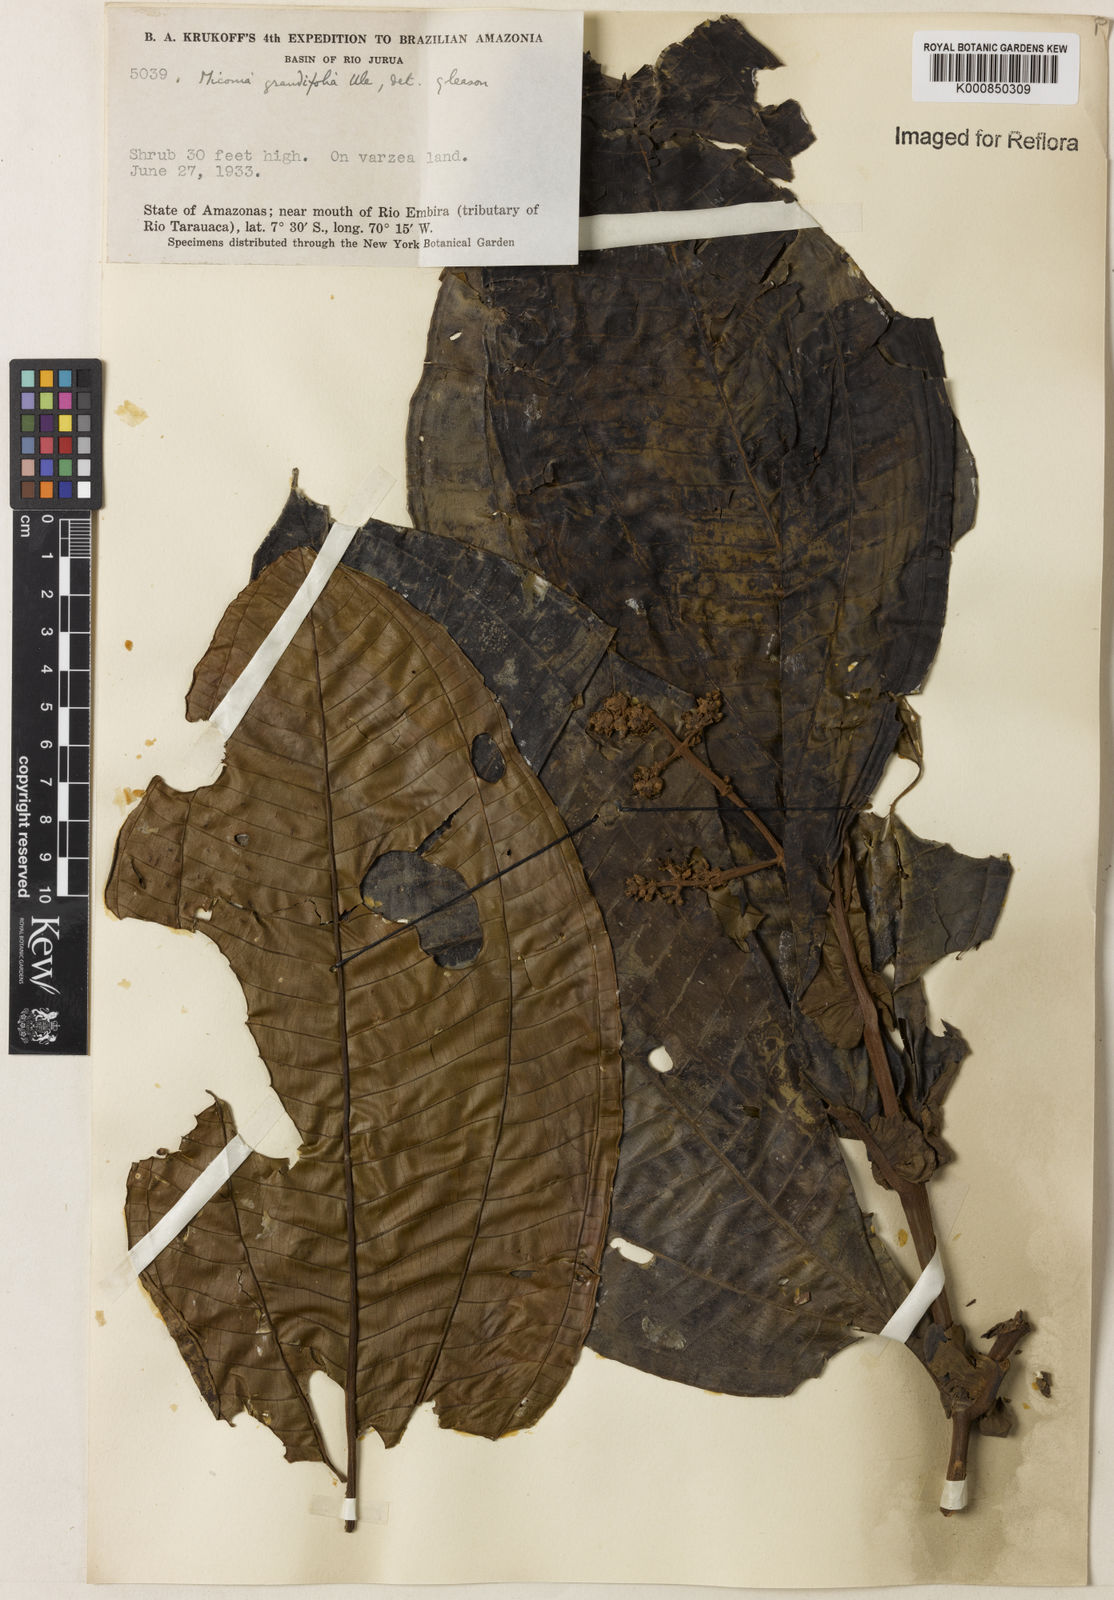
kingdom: Plantae
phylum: Tracheophyta
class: Magnoliopsida
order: Myrtales
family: Melastomataceae
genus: Miconia
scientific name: Miconia grandifoliata
